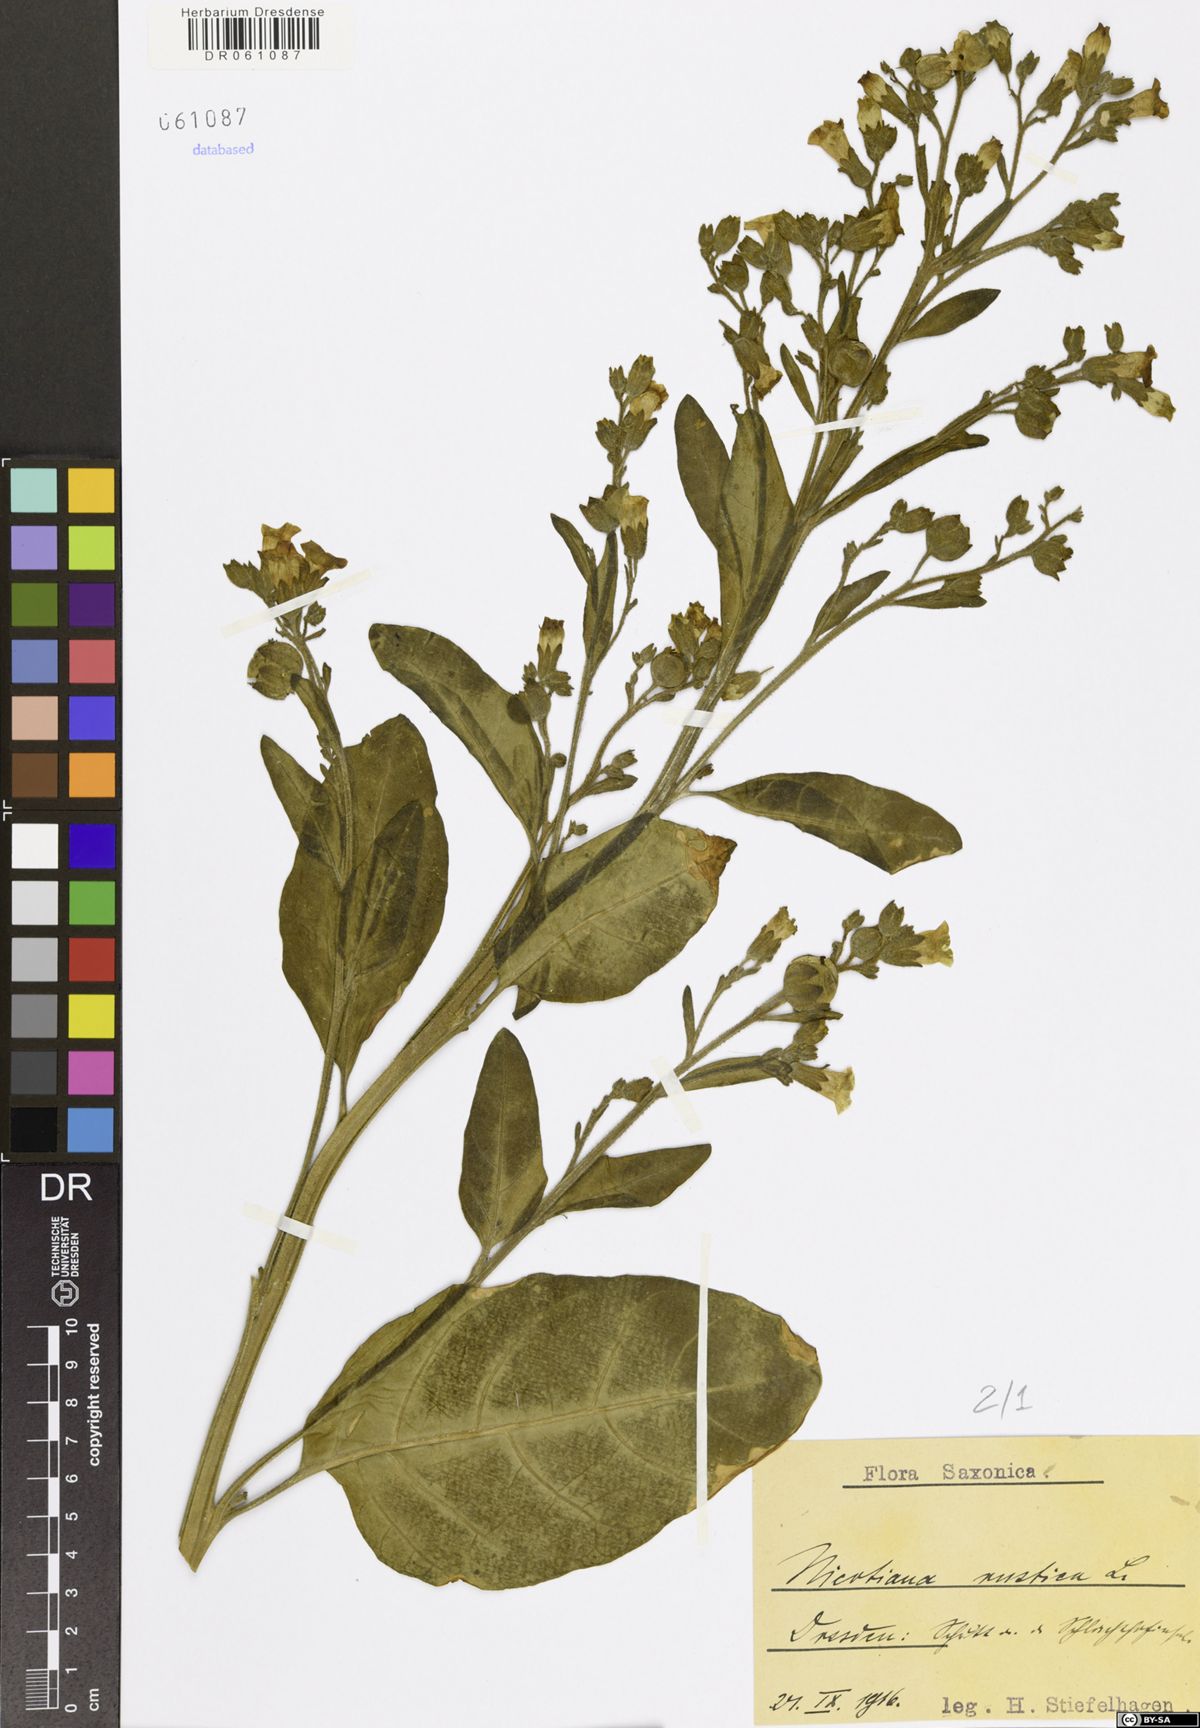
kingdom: Plantae
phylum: Tracheophyta
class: Magnoliopsida
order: Solanales
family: Solanaceae
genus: Nicotiana
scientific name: Nicotiana rustica
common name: Wild tobacco
